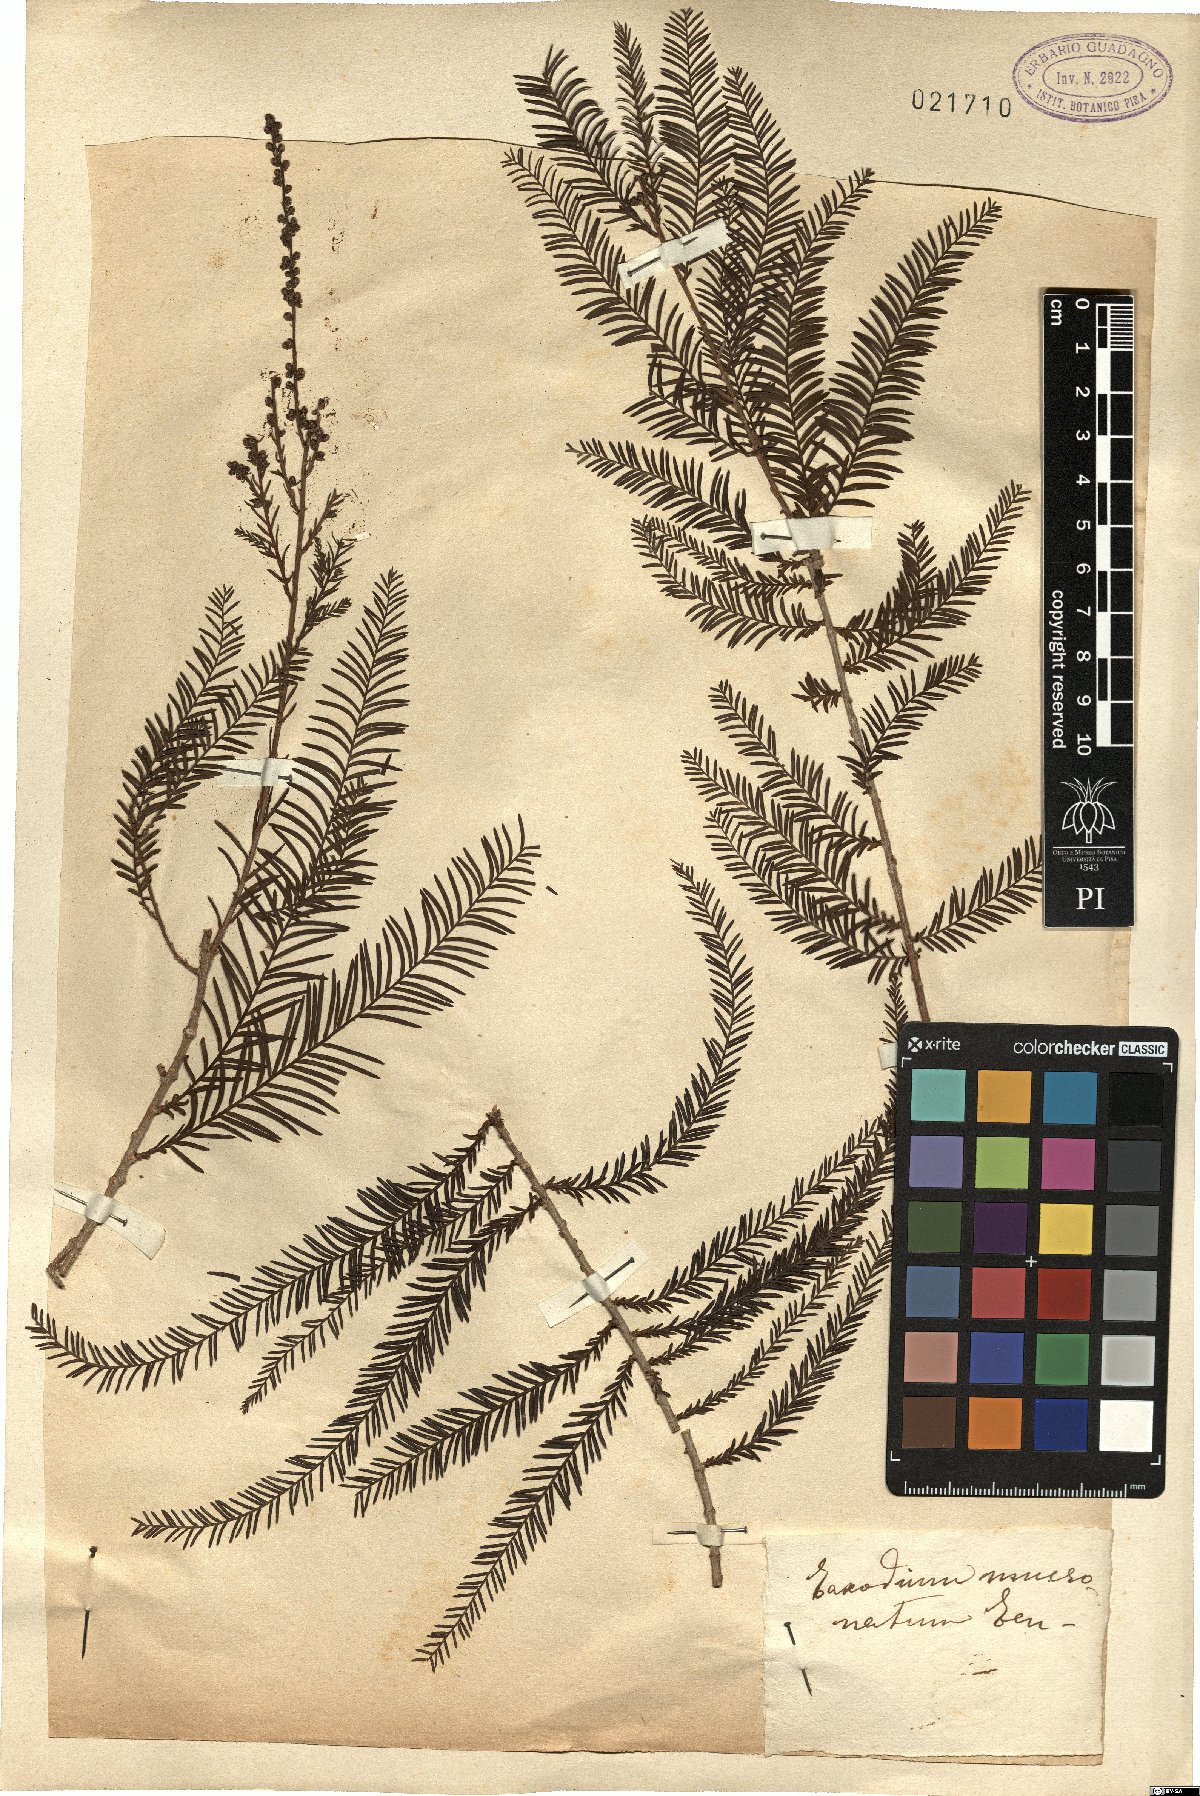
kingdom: Plantae
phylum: Tracheophyta
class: Pinopsida
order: Pinales
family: Cupressaceae
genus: Taxodium
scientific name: Taxodium mucronatum
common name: Montezume bald cypress
